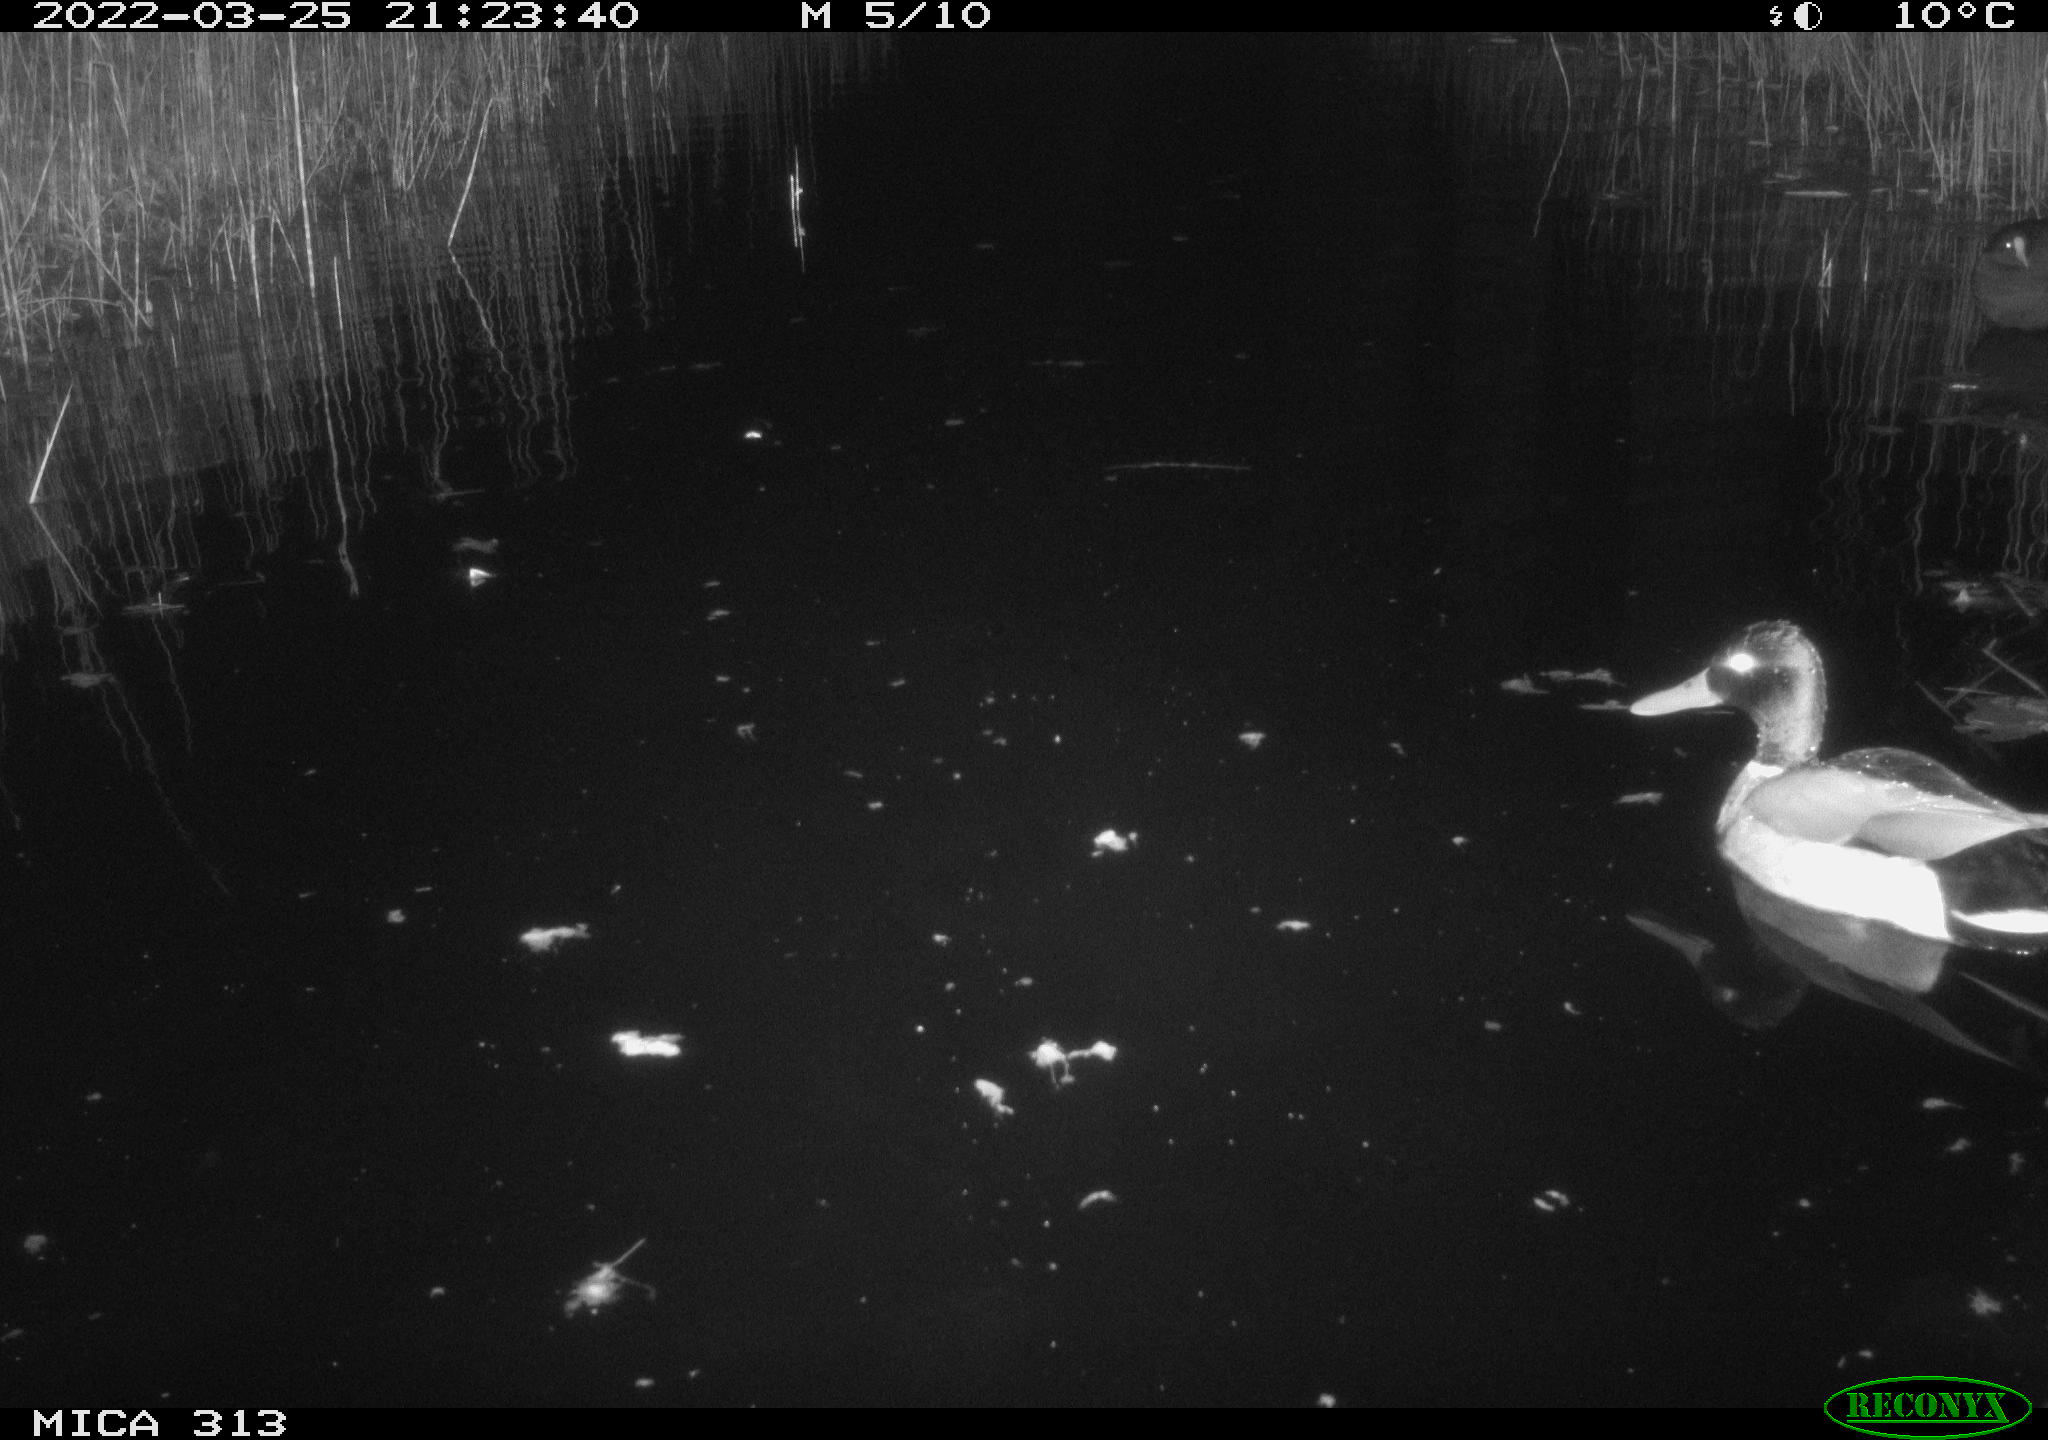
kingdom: Animalia
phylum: Chordata
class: Aves
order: Anseriformes
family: Anatidae
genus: Anas
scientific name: Anas platyrhynchos
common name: Mallard
